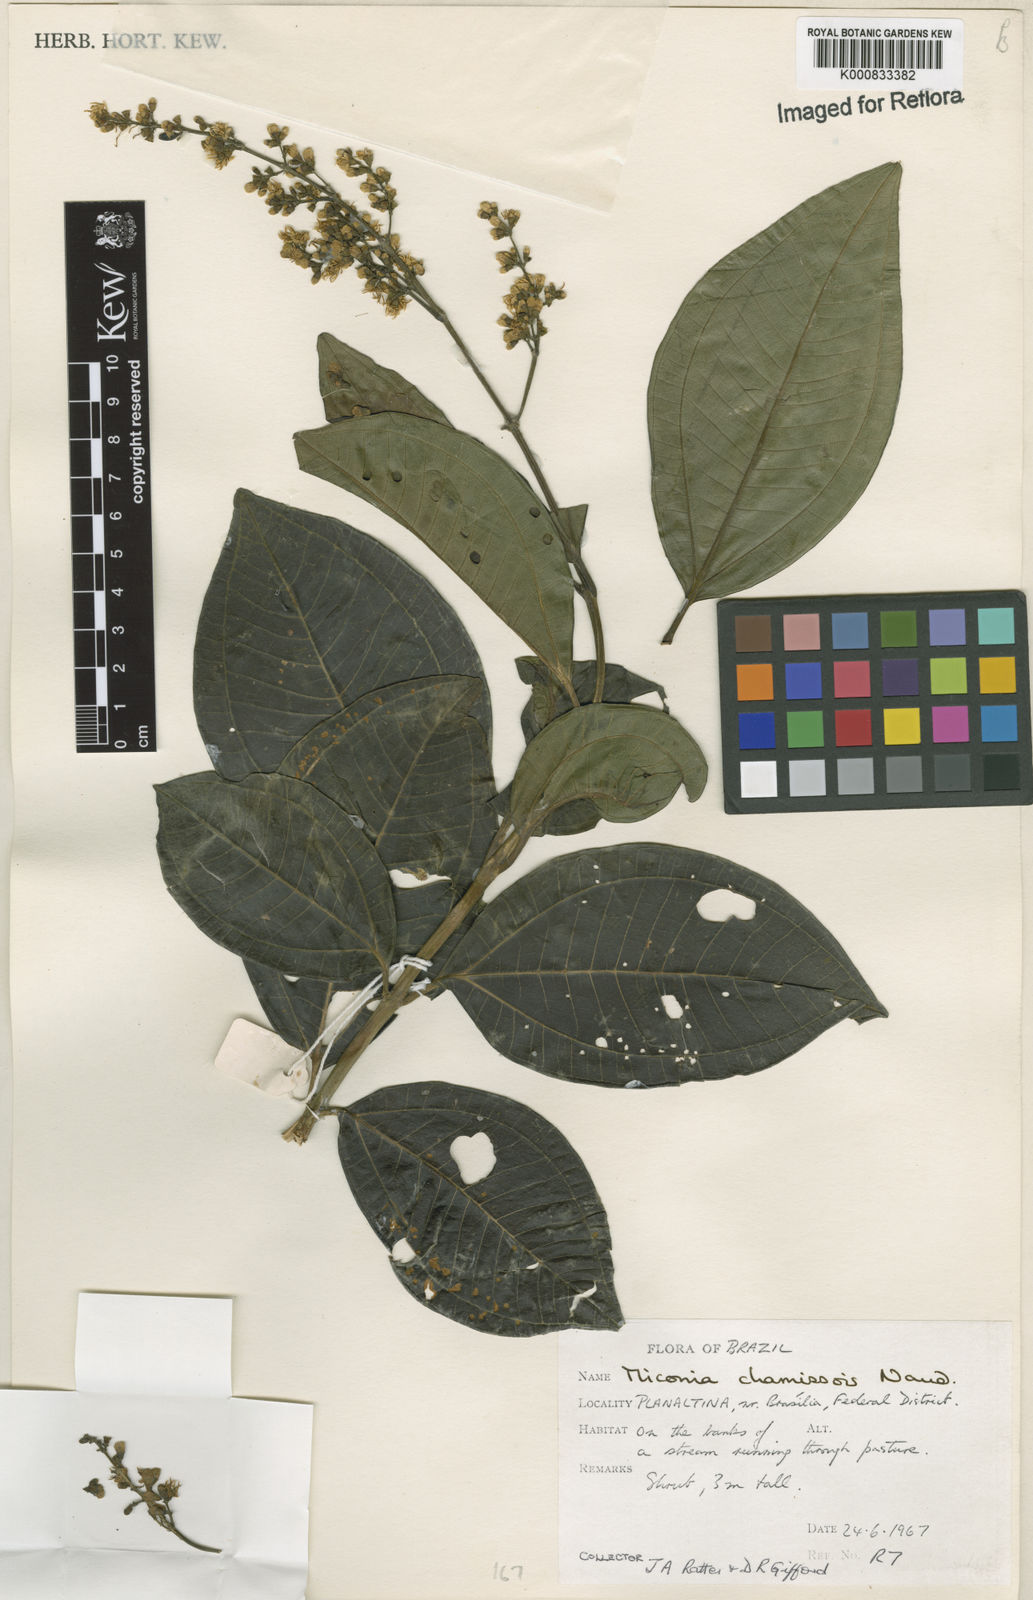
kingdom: Plantae
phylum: Tracheophyta
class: Magnoliopsida
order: Myrtales
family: Melastomataceae
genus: Miconia
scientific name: Miconia chamissois
